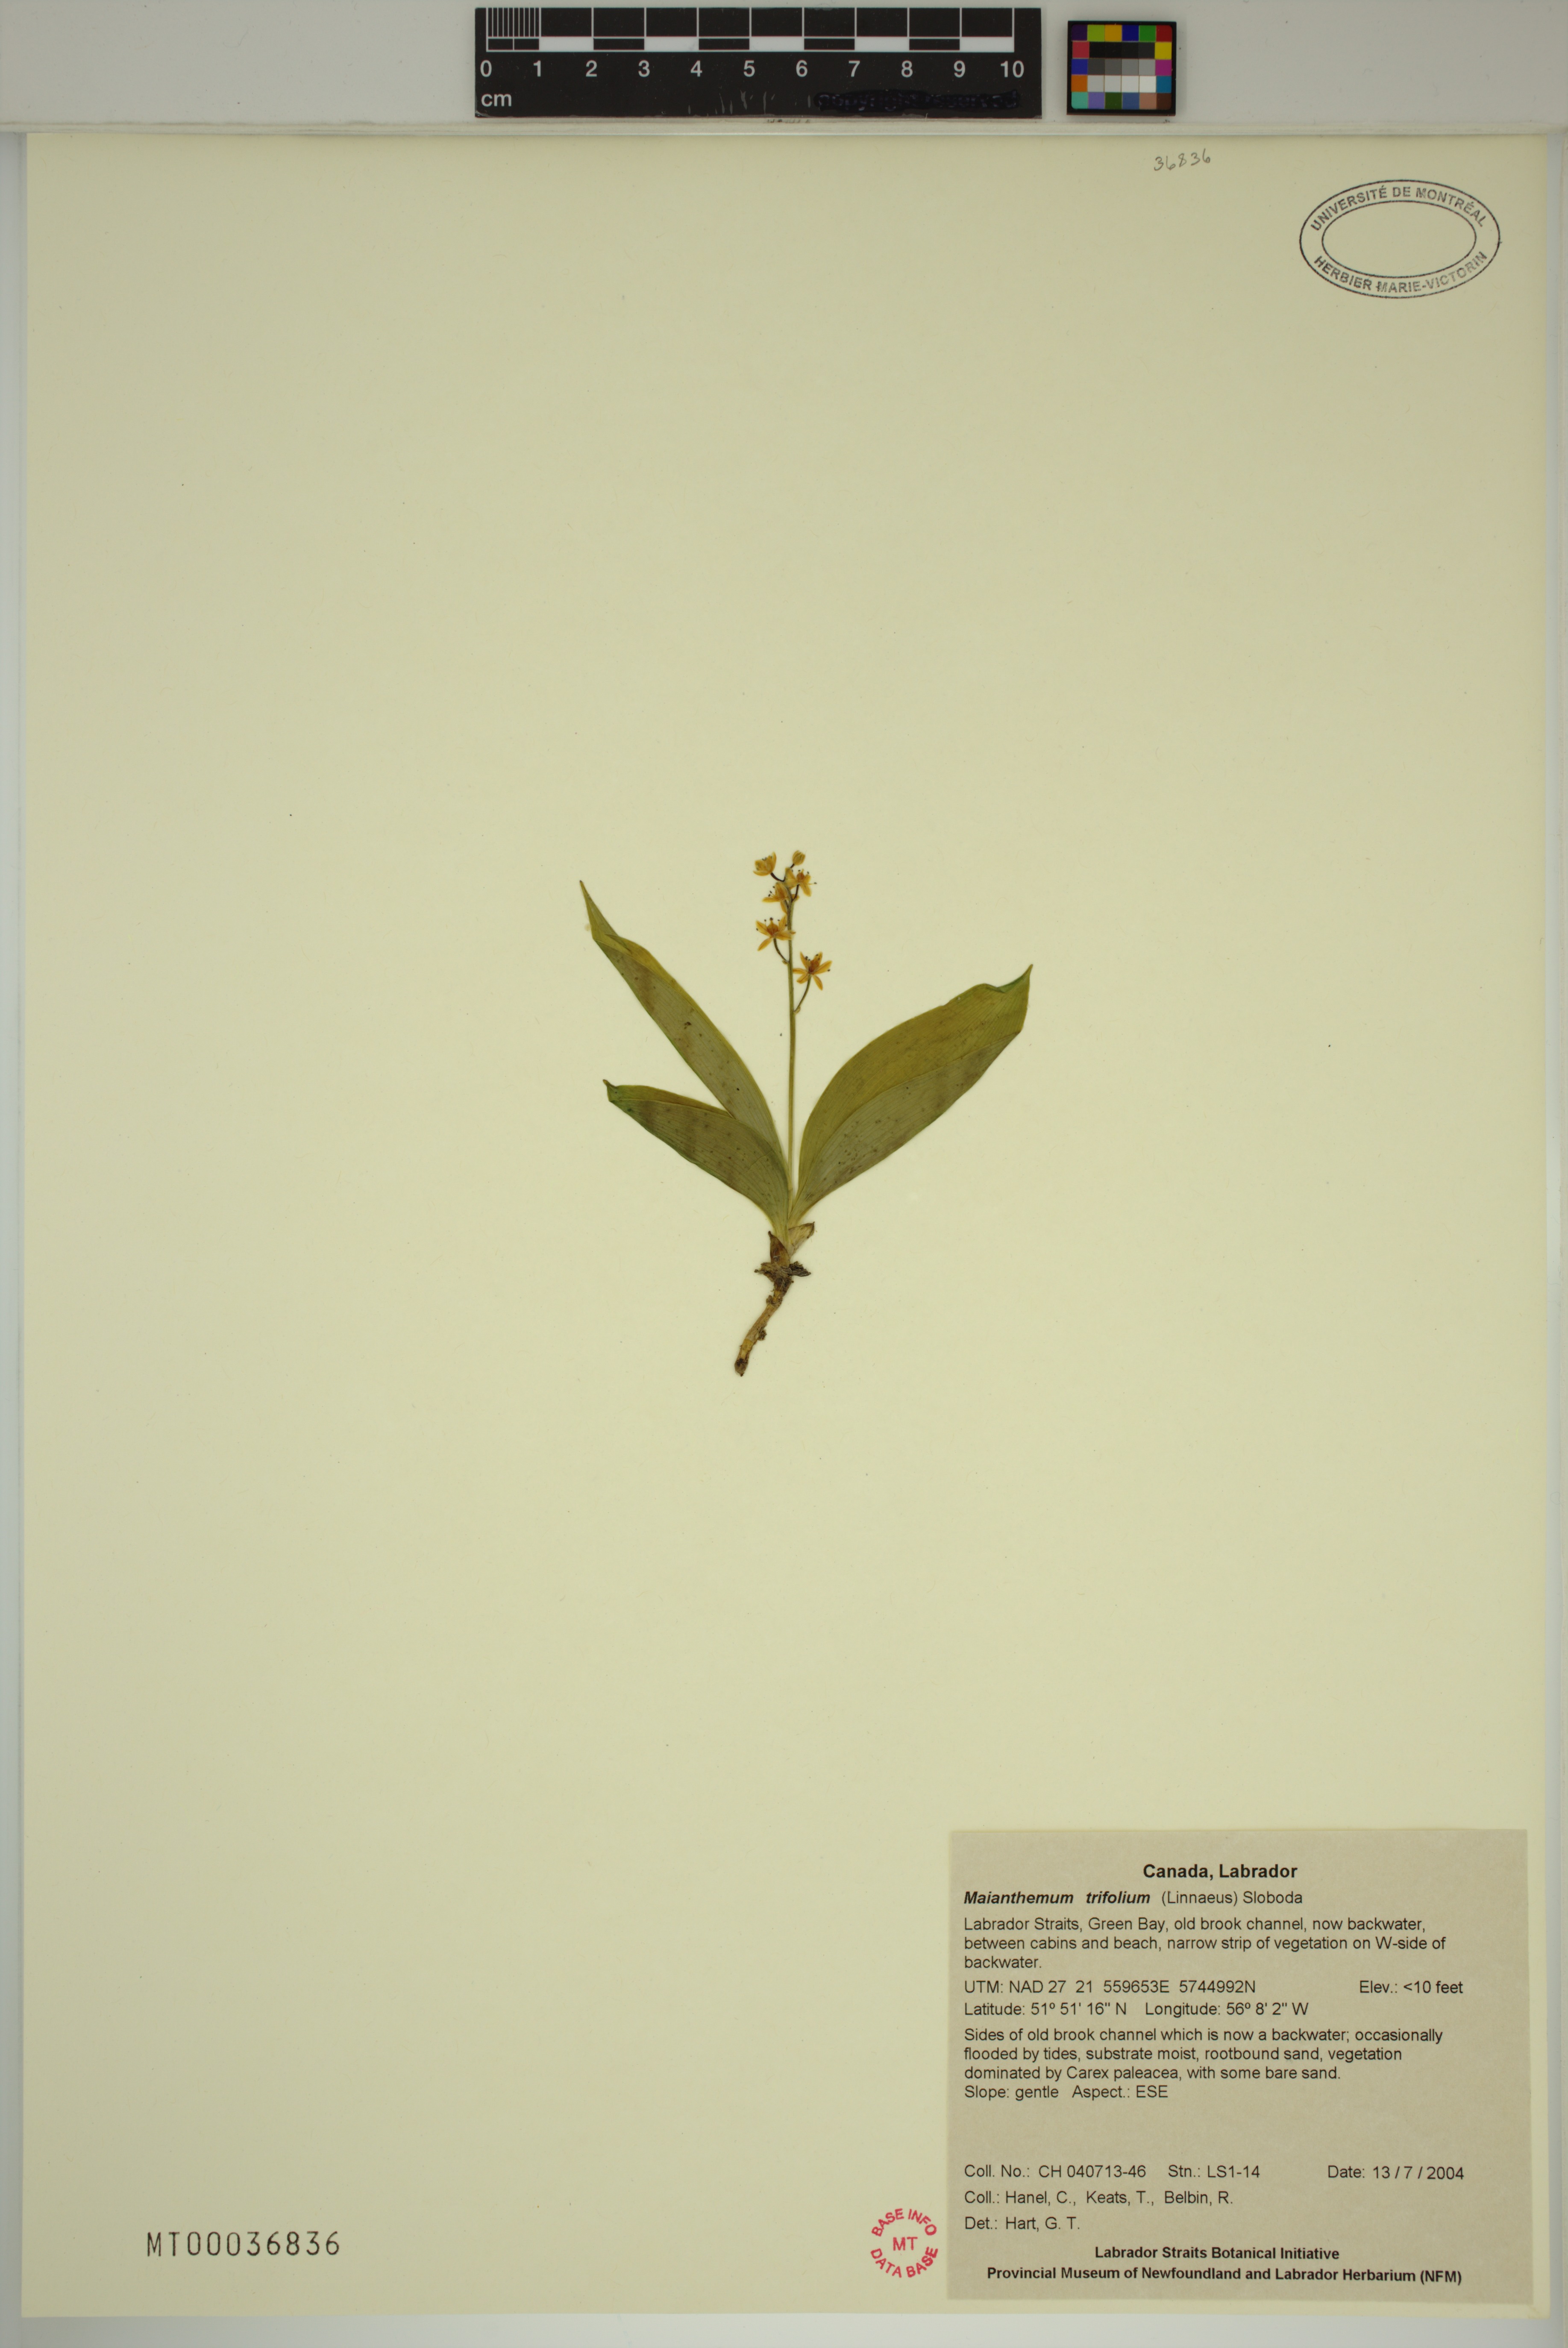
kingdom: Plantae
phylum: Tracheophyta
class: Liliopsida
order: Asparagales
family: Asparagaceae
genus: Maianthemum
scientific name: Maianthemum trifolium
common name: Swamp false solomon's seal
